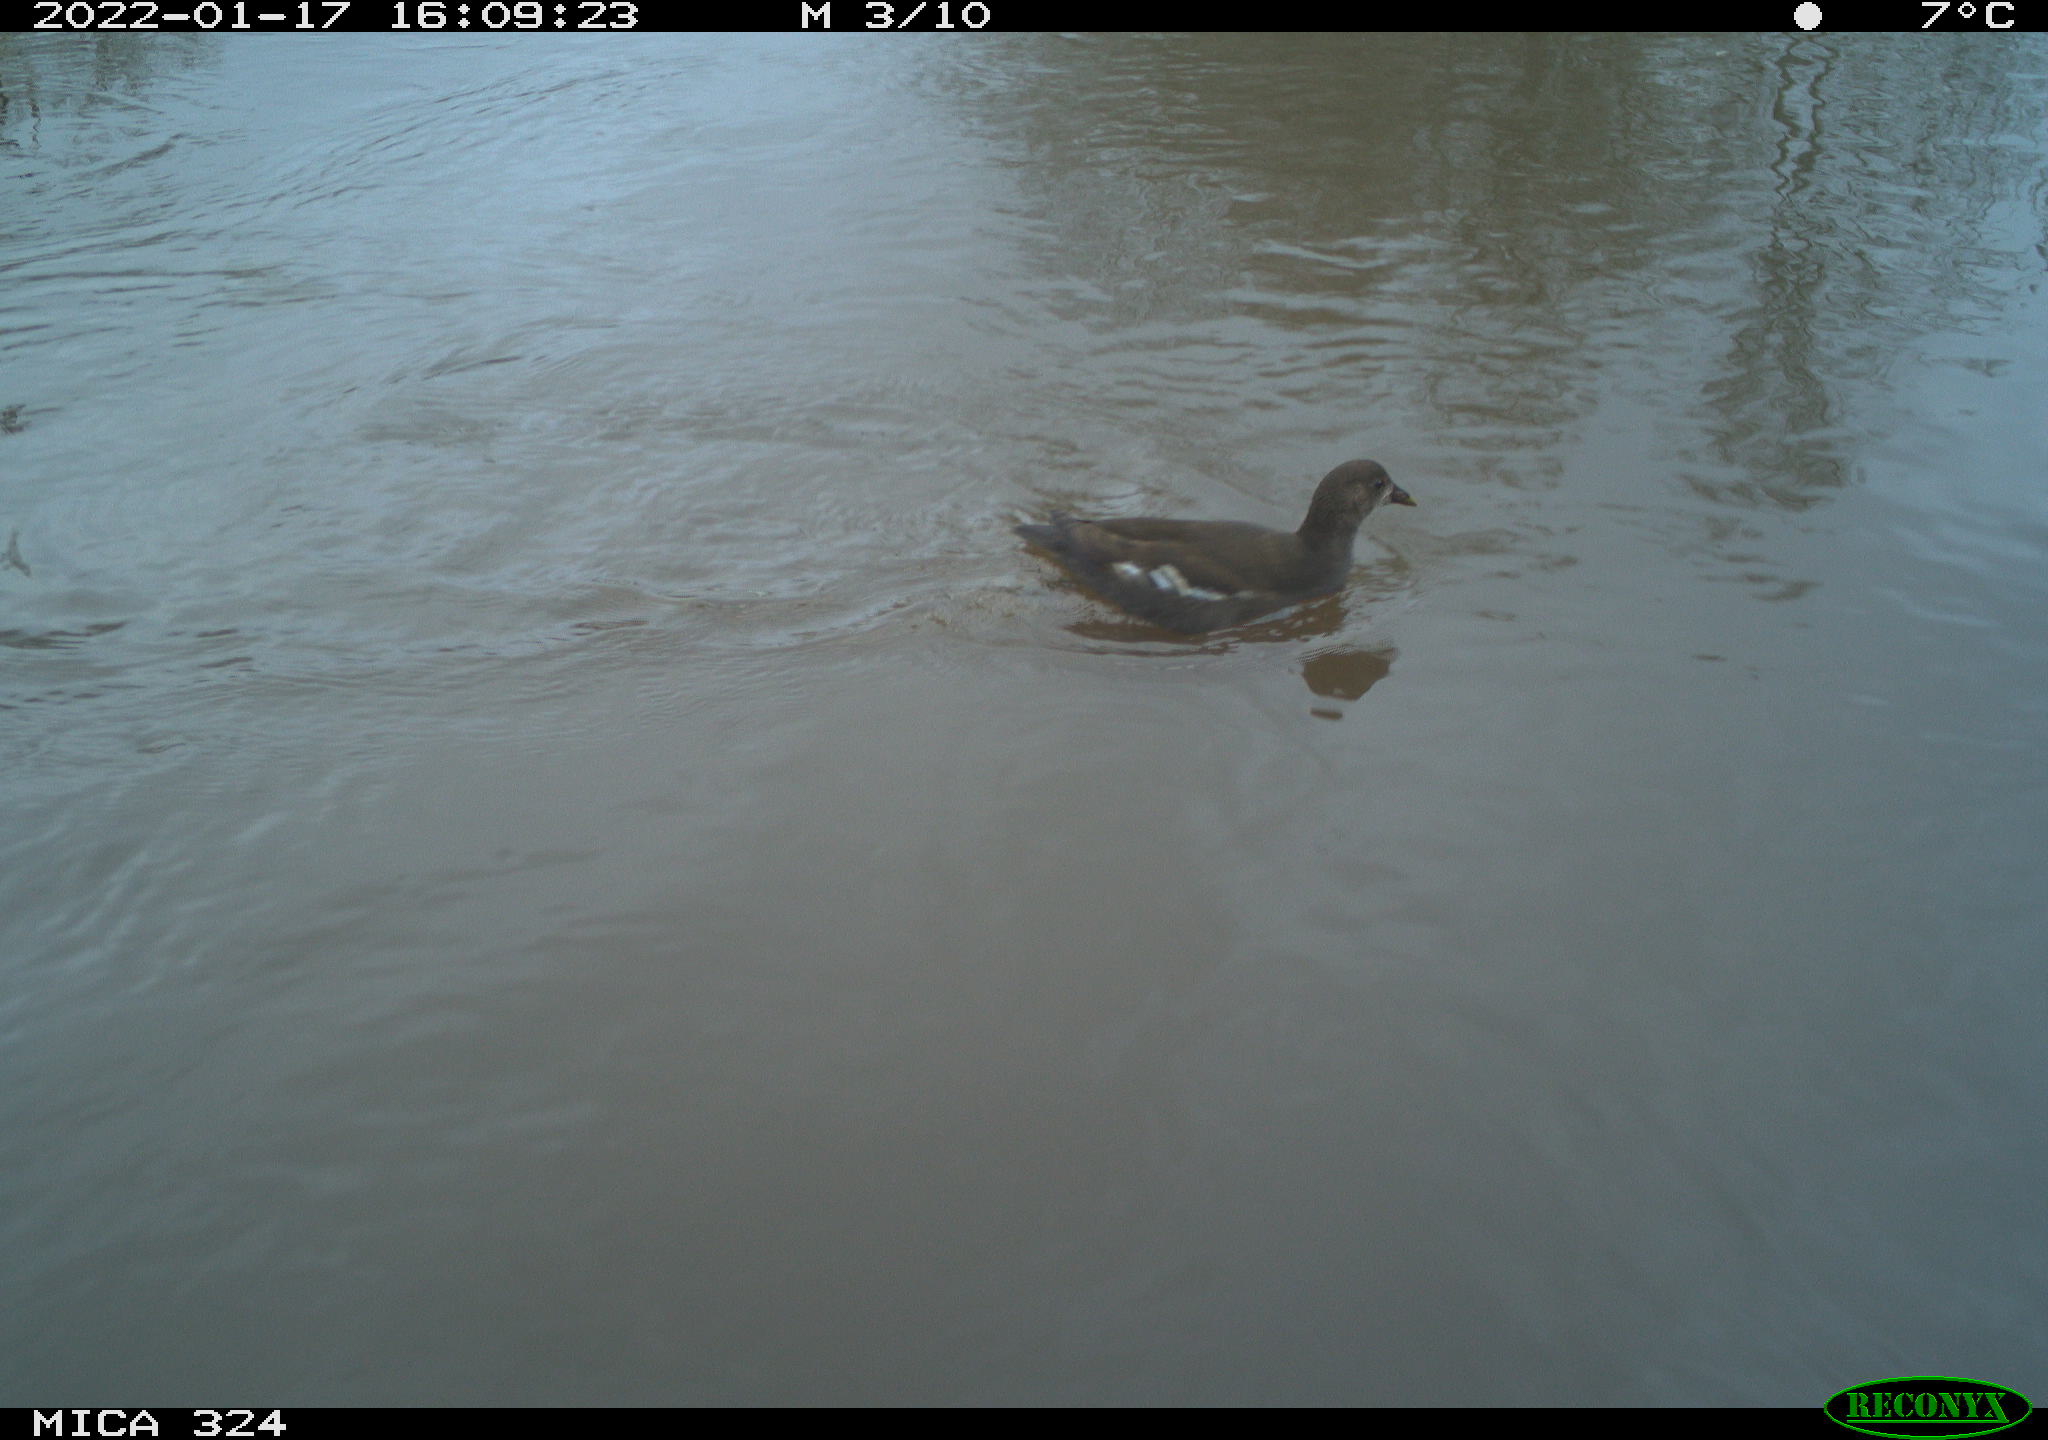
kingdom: Animalia
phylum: Chordata
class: Aves
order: Gruiformes
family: Rallidae
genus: Gallinula
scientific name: Gallinula chloropus
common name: Common moorhen
